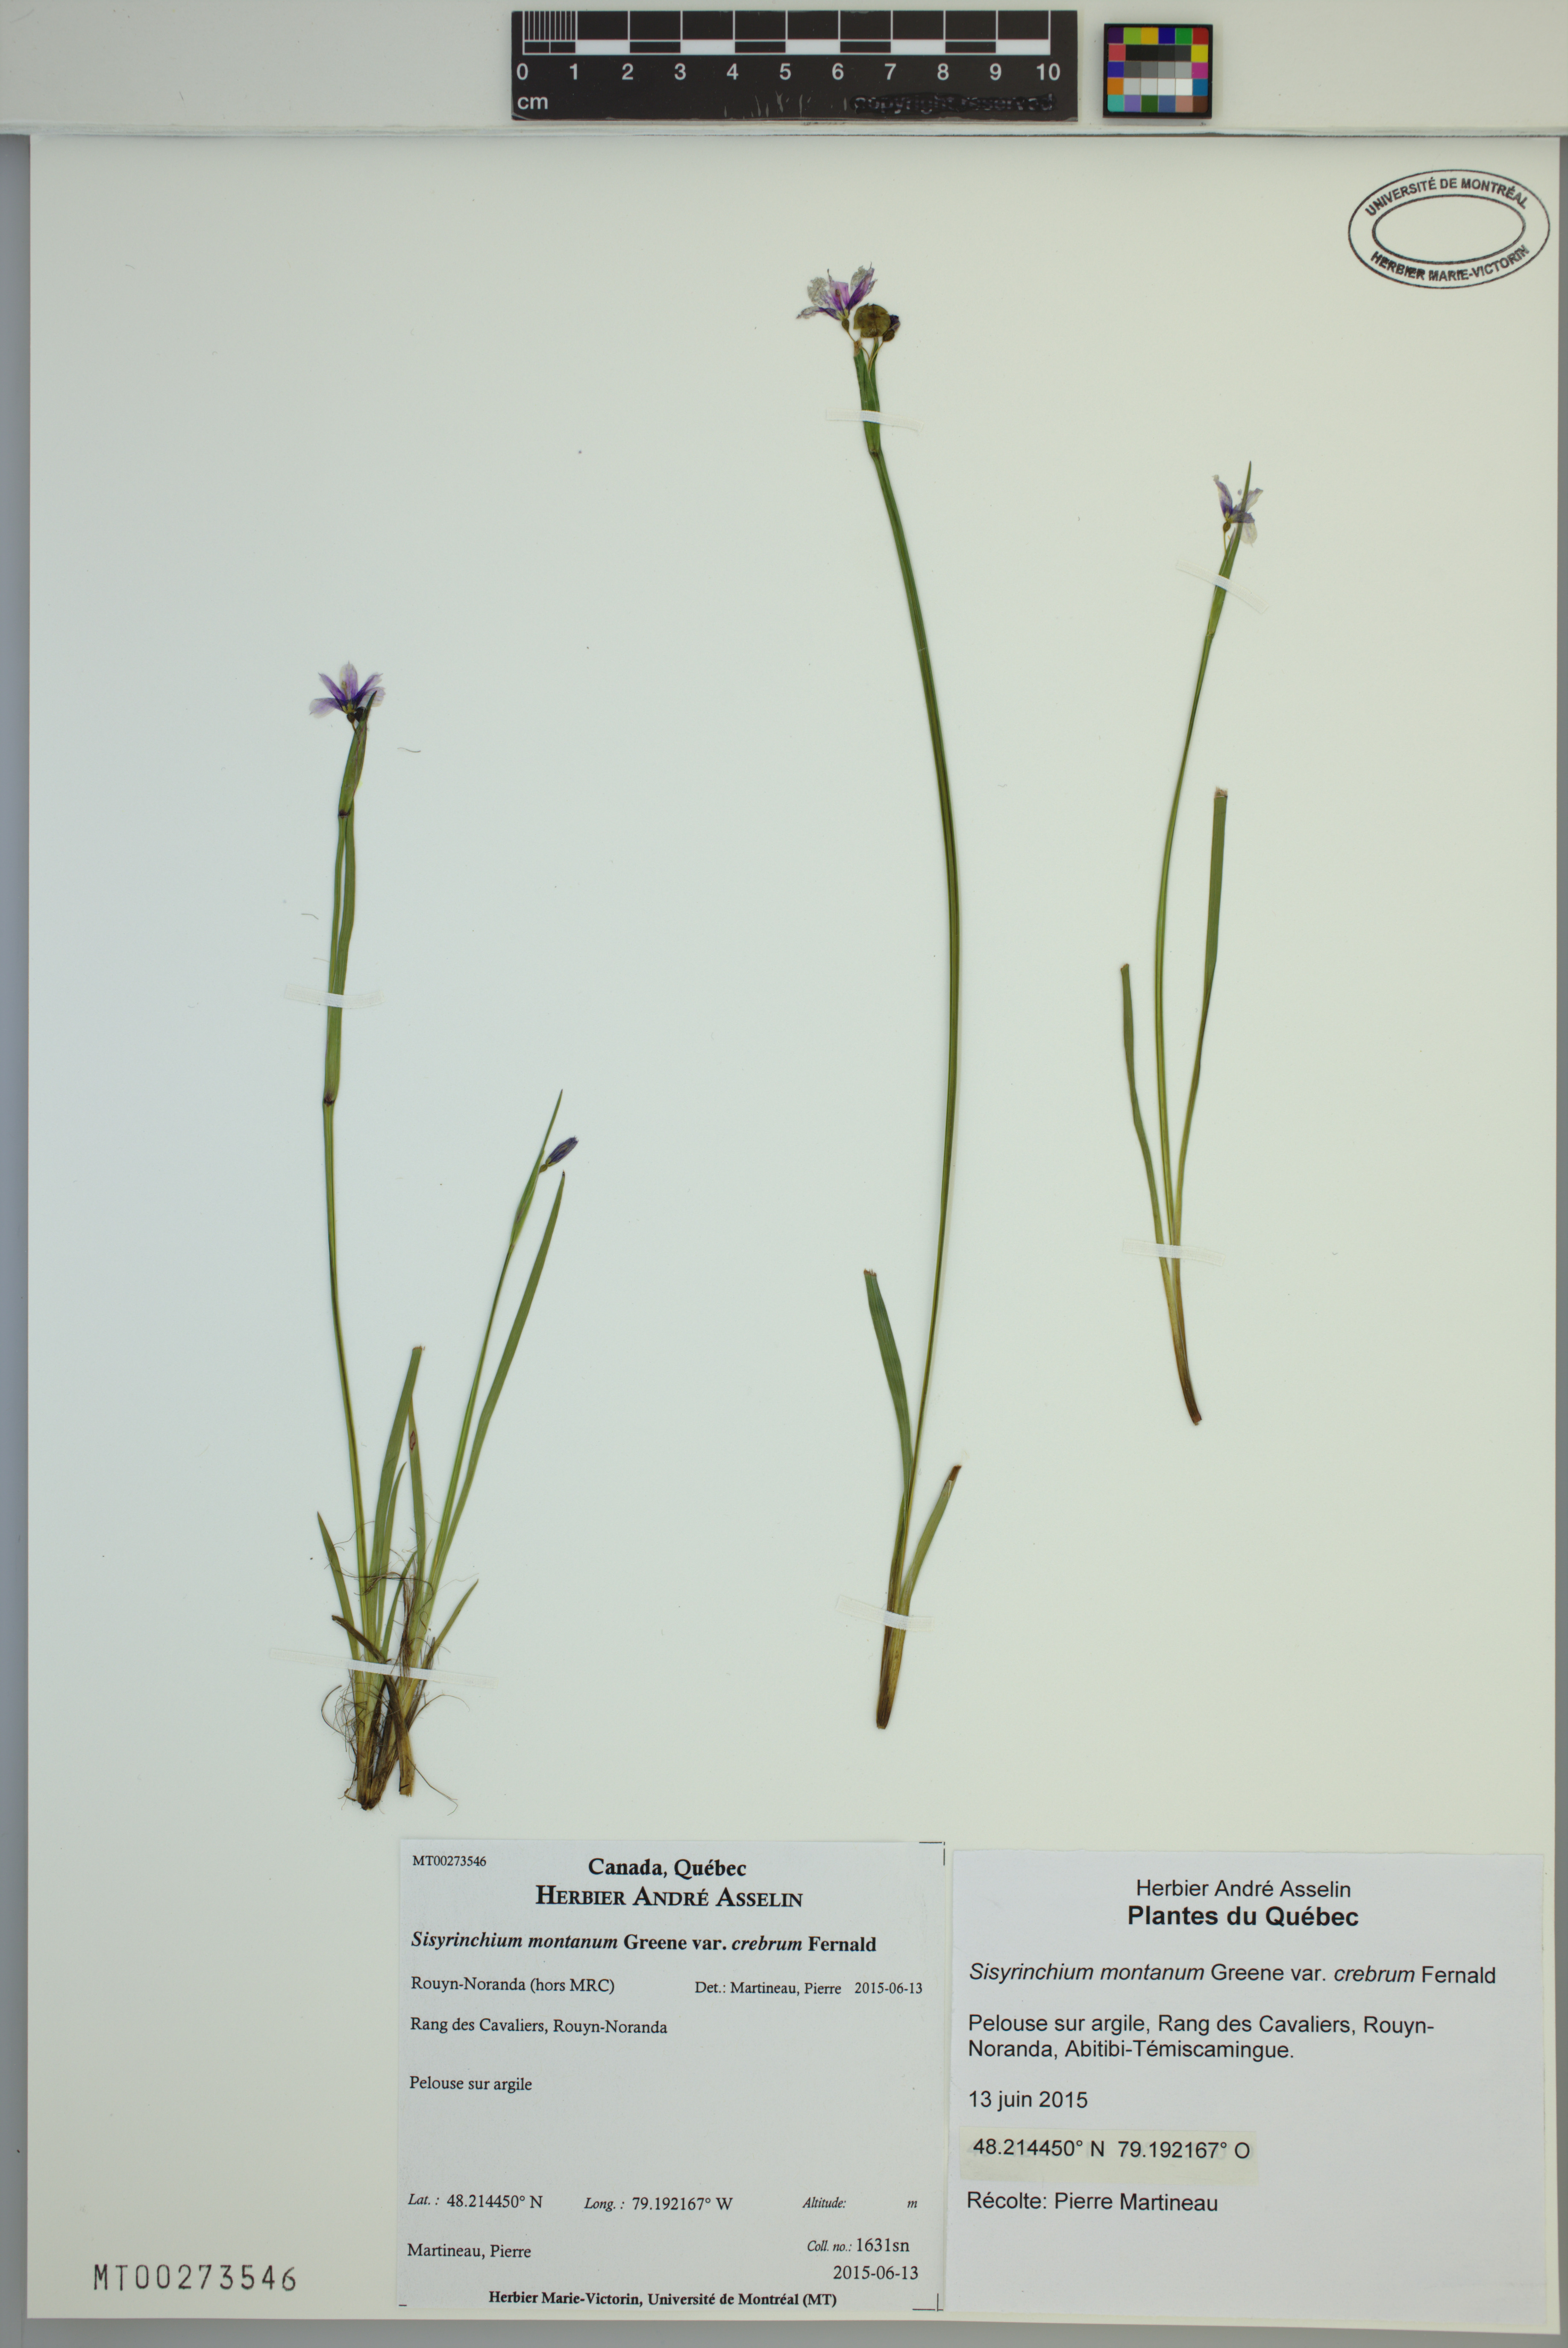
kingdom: Plantae
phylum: Tracheophyta
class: Liliopsida
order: Asparagales
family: Iridaceae
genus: Sisyrinchium
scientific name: Sisyrinchium montanum
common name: American blue-eyed-grass
